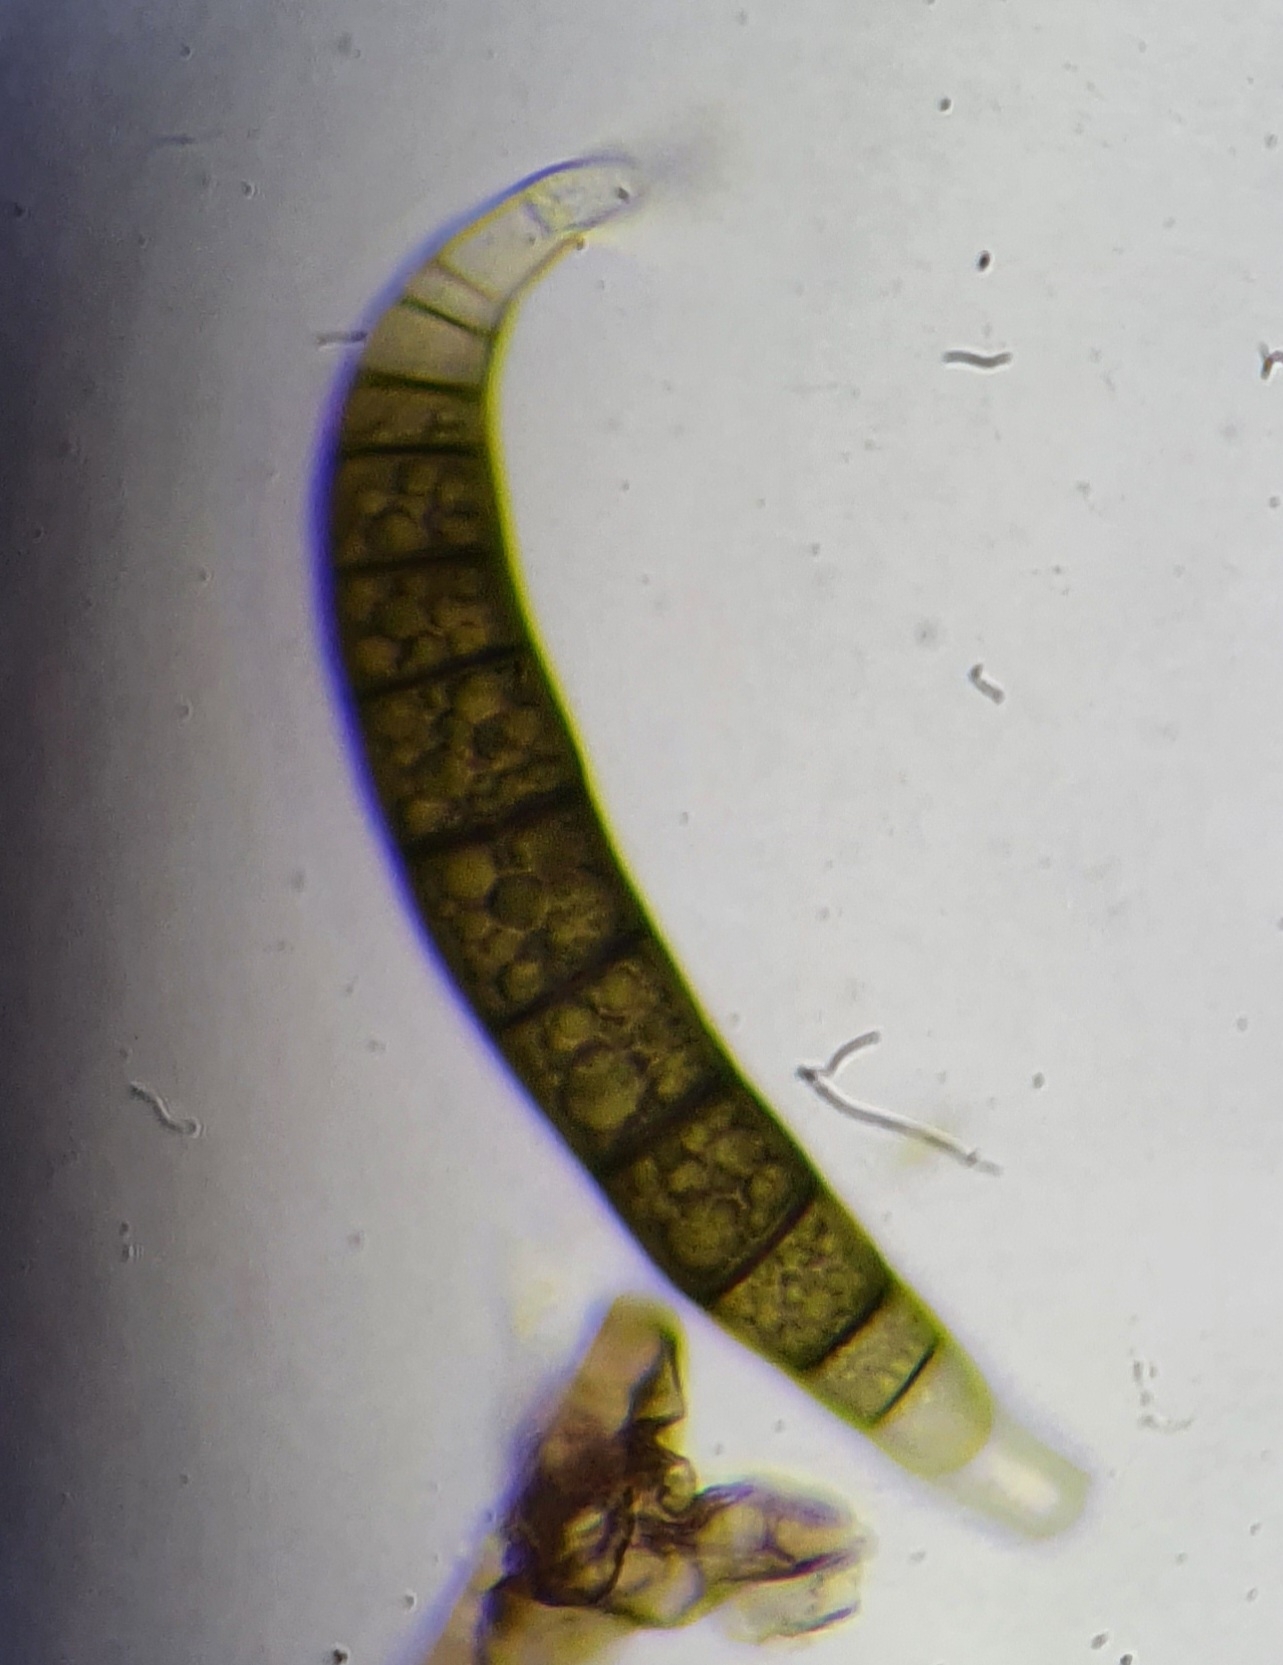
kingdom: Fungi
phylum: Ascomycota
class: Dothideomycetes
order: Pleosporales
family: Pleomassariaceae
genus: Asteromassaria
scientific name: Asteromassaria macrospora
